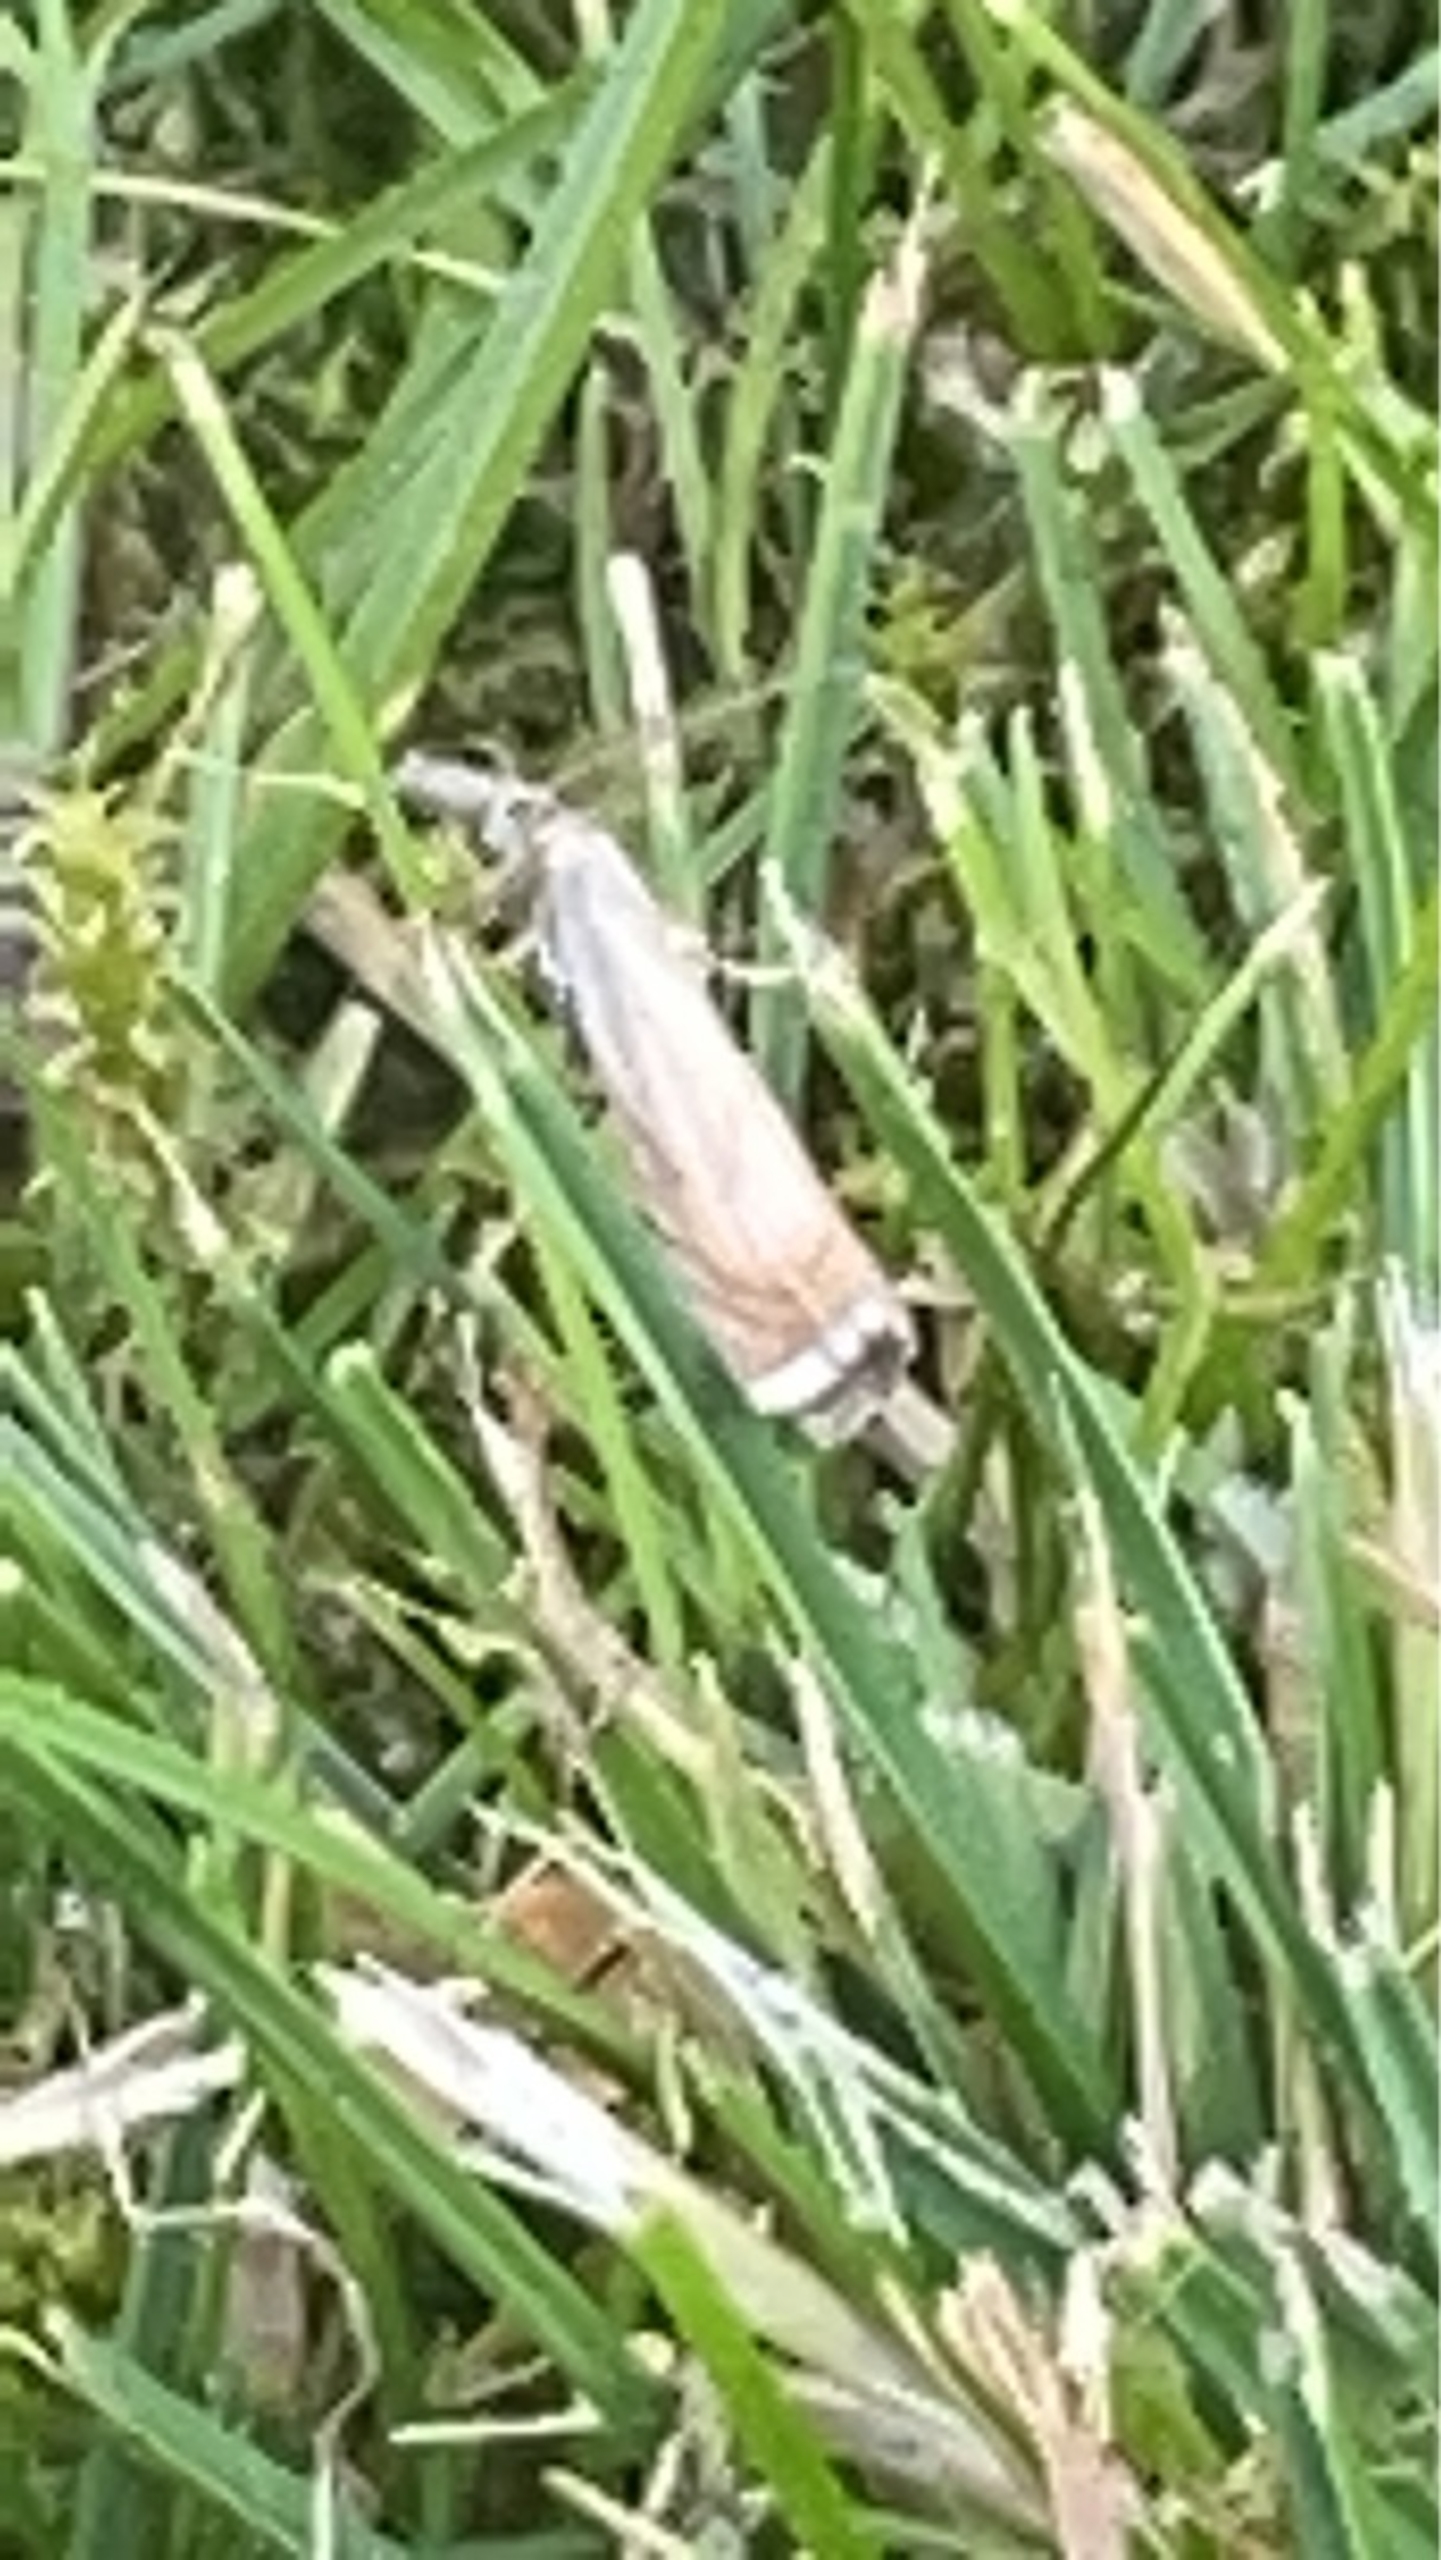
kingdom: Animalia
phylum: Arthropoda
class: Insecta
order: Lepidoptera
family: Crambidae
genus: Chrysoteuchia
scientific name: Chrysoteuchia culmella
